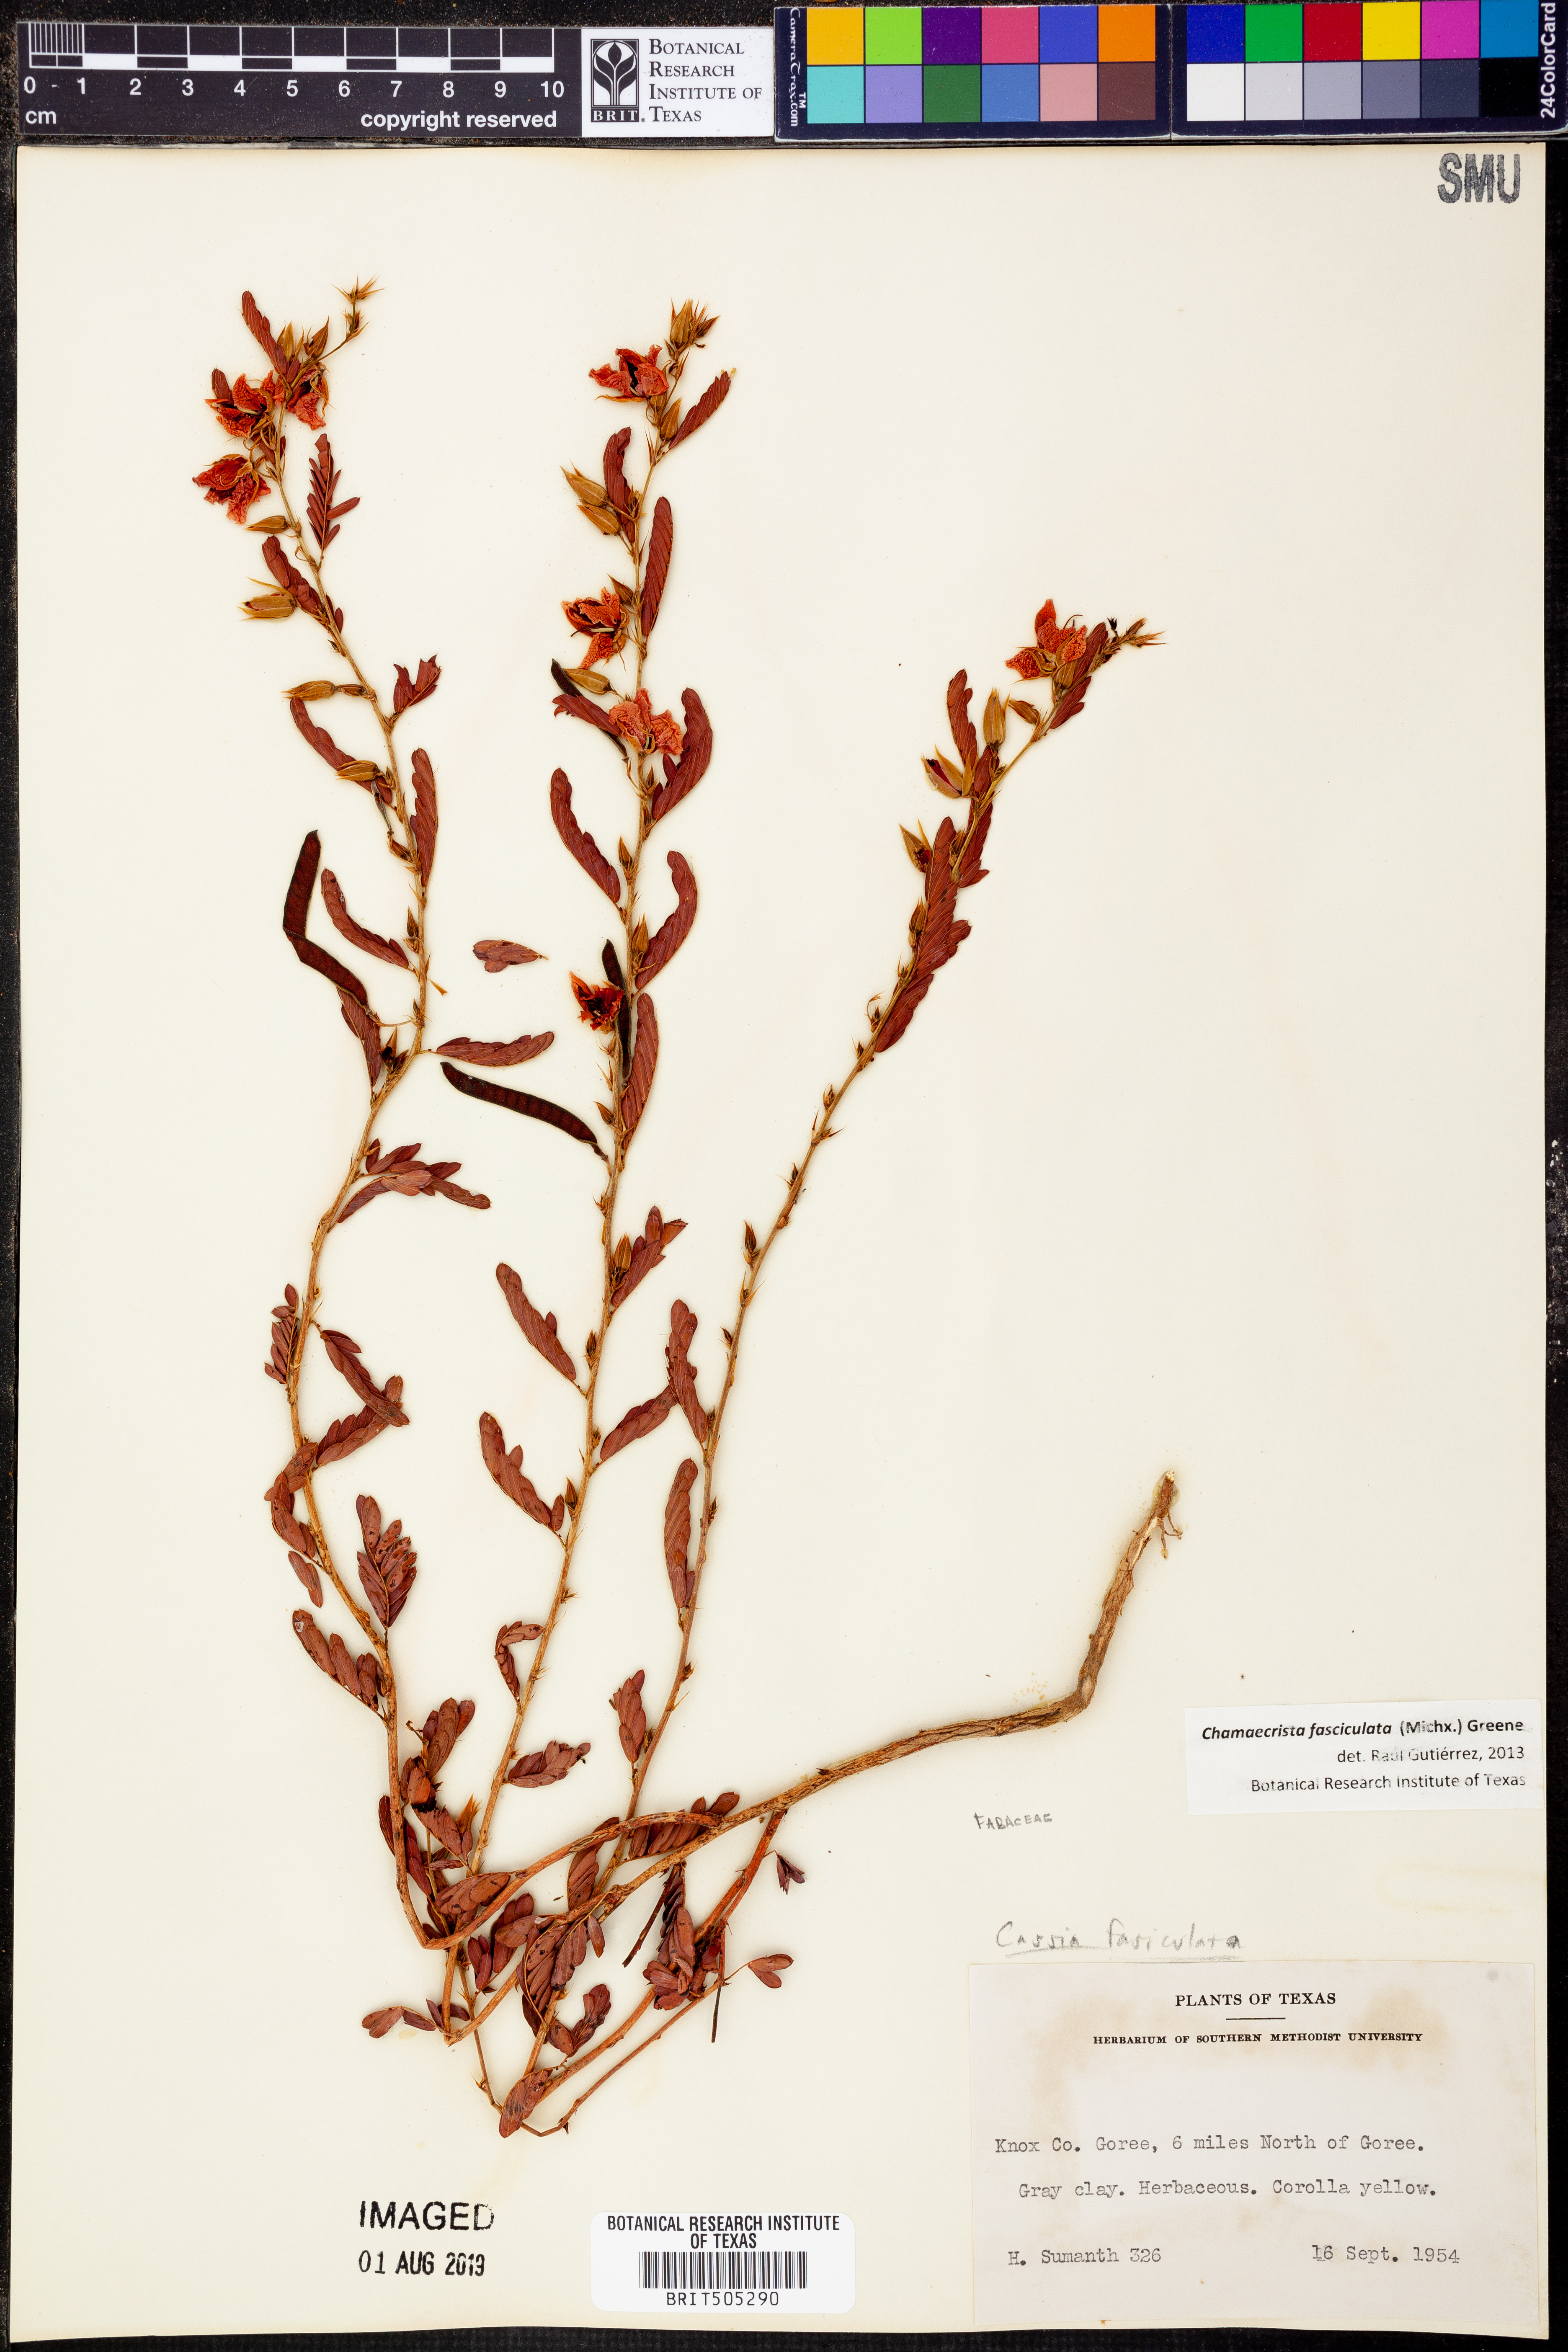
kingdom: Plantae
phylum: Tracheophyta
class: Magnoliopsida
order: Fabales
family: Fabaceae
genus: Chamaecrista
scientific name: Chamaecrista fasciculata
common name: Golden cassia
